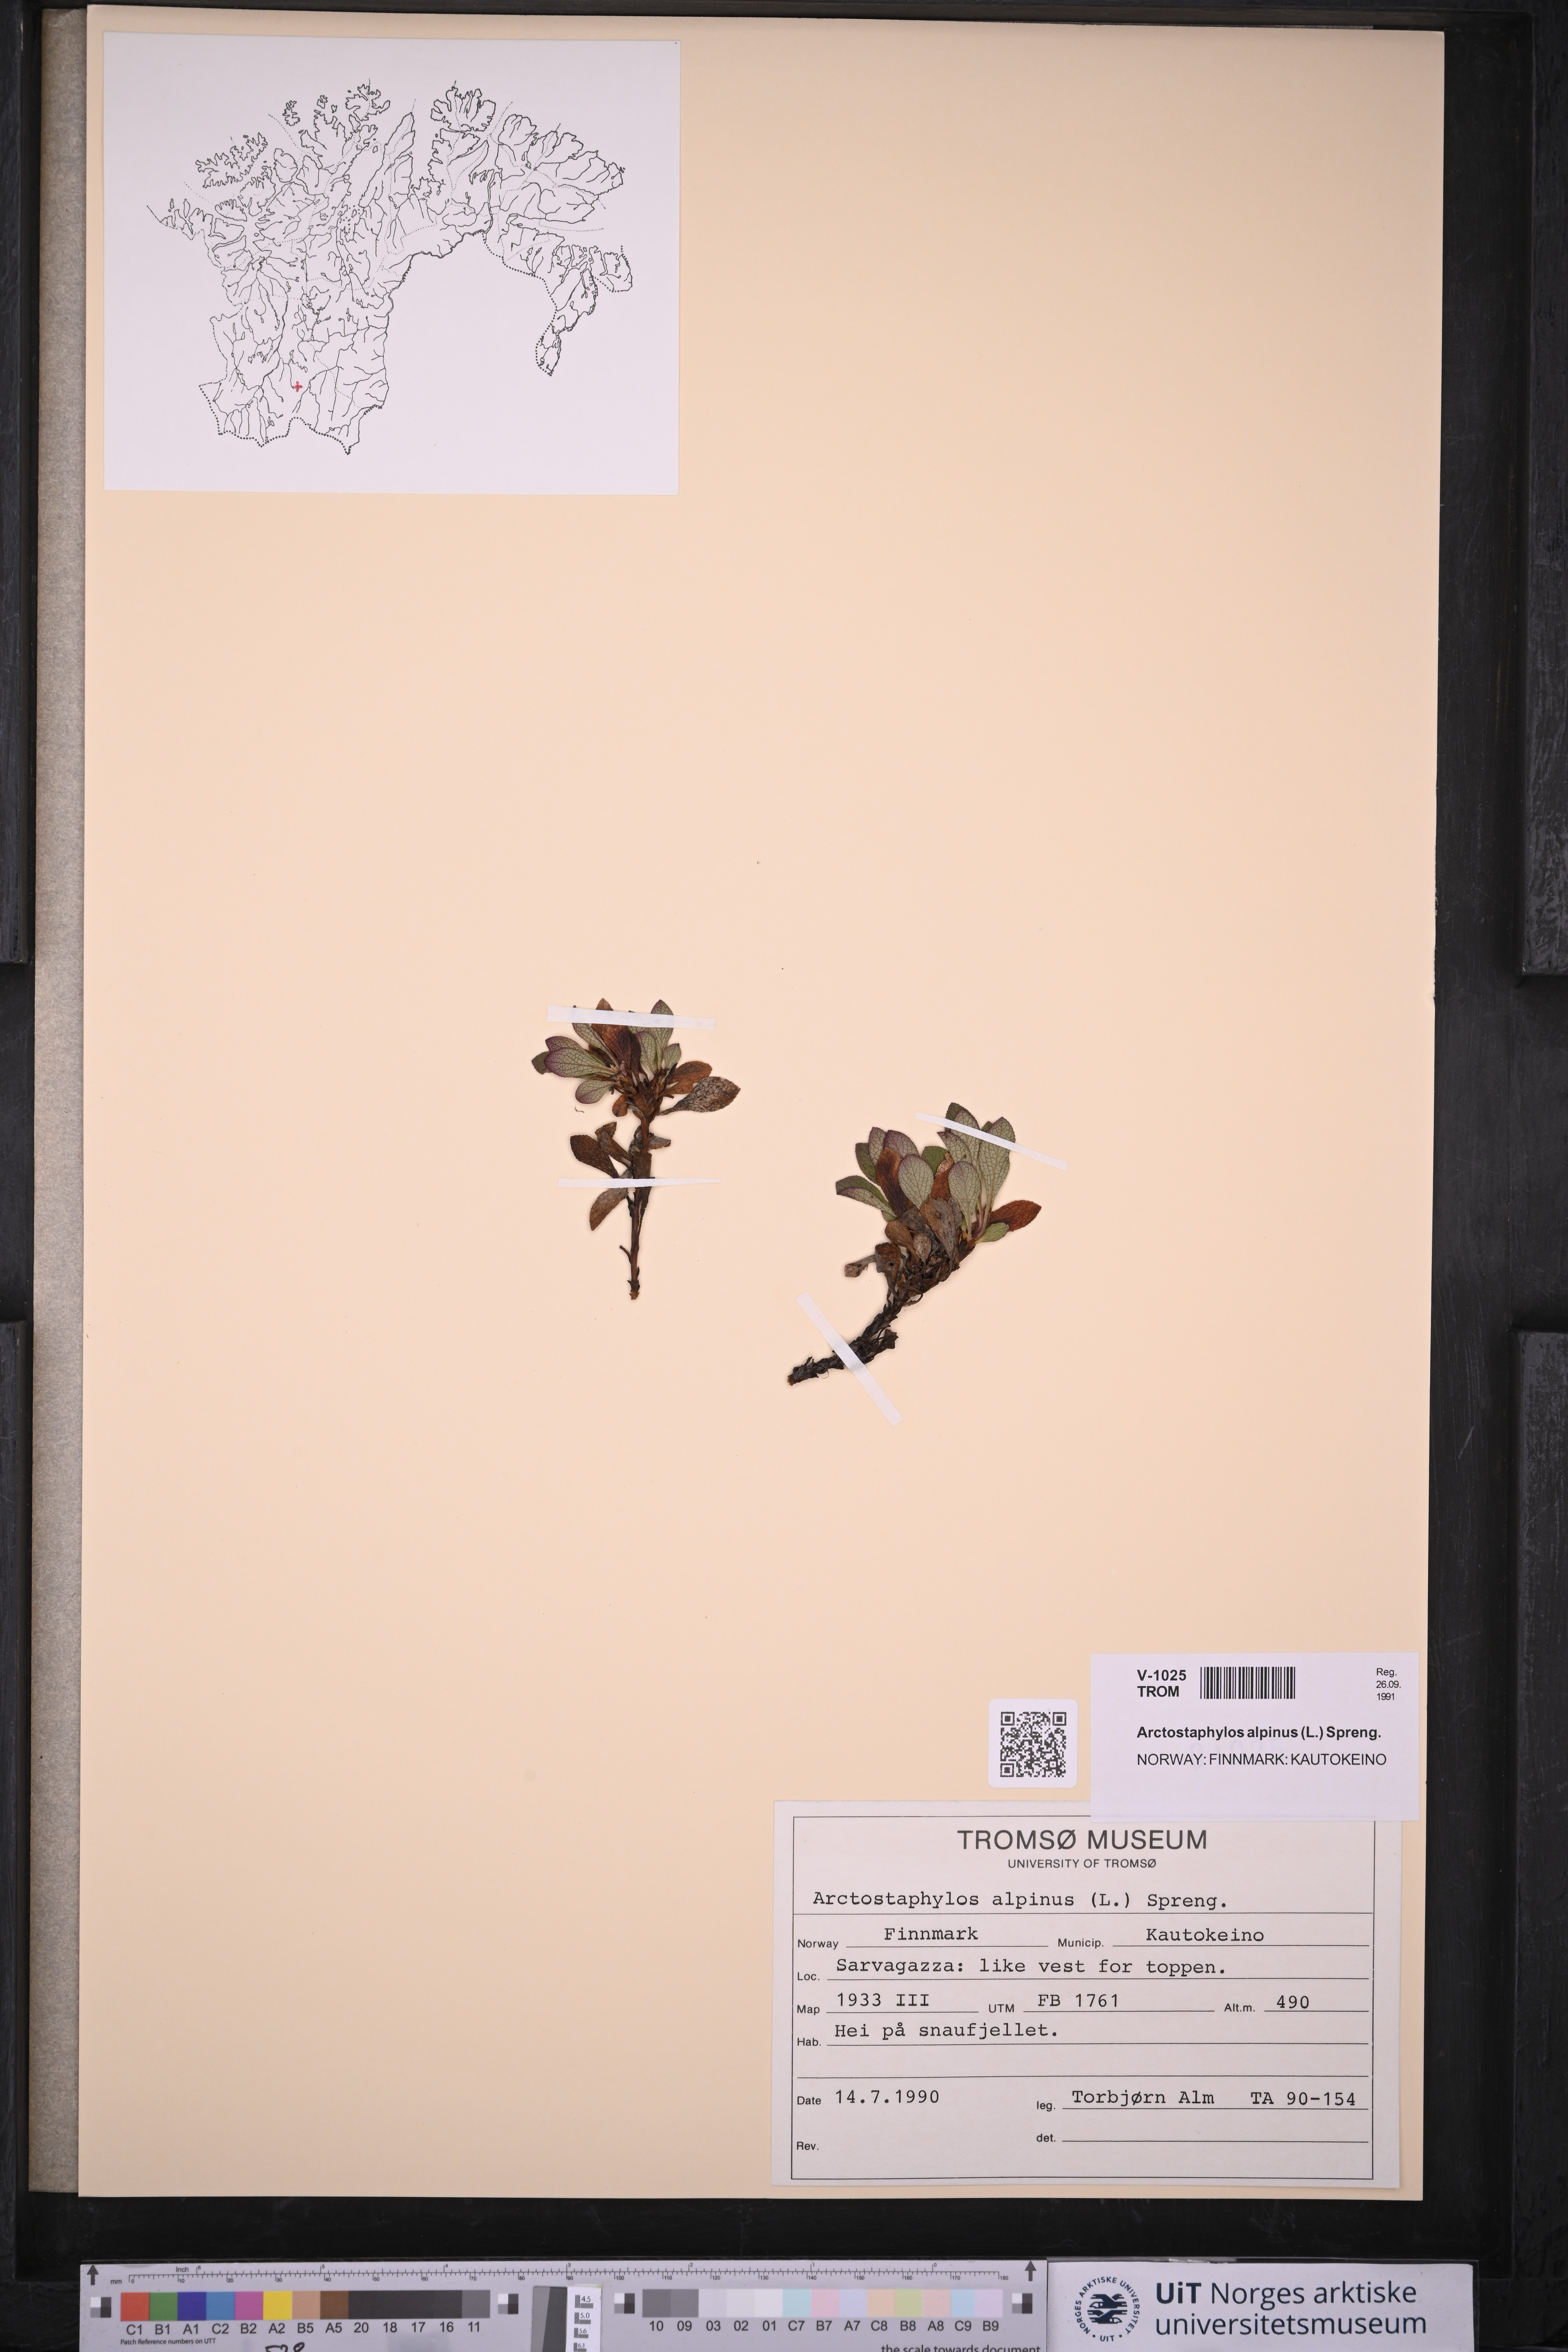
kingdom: Plantae
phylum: Tracheophyta
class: Magnoliopsida
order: Ericales
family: Ericaceae
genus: Arctostaphylos
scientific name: Arctostaphylos alpinus
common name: Alpine bearberry
